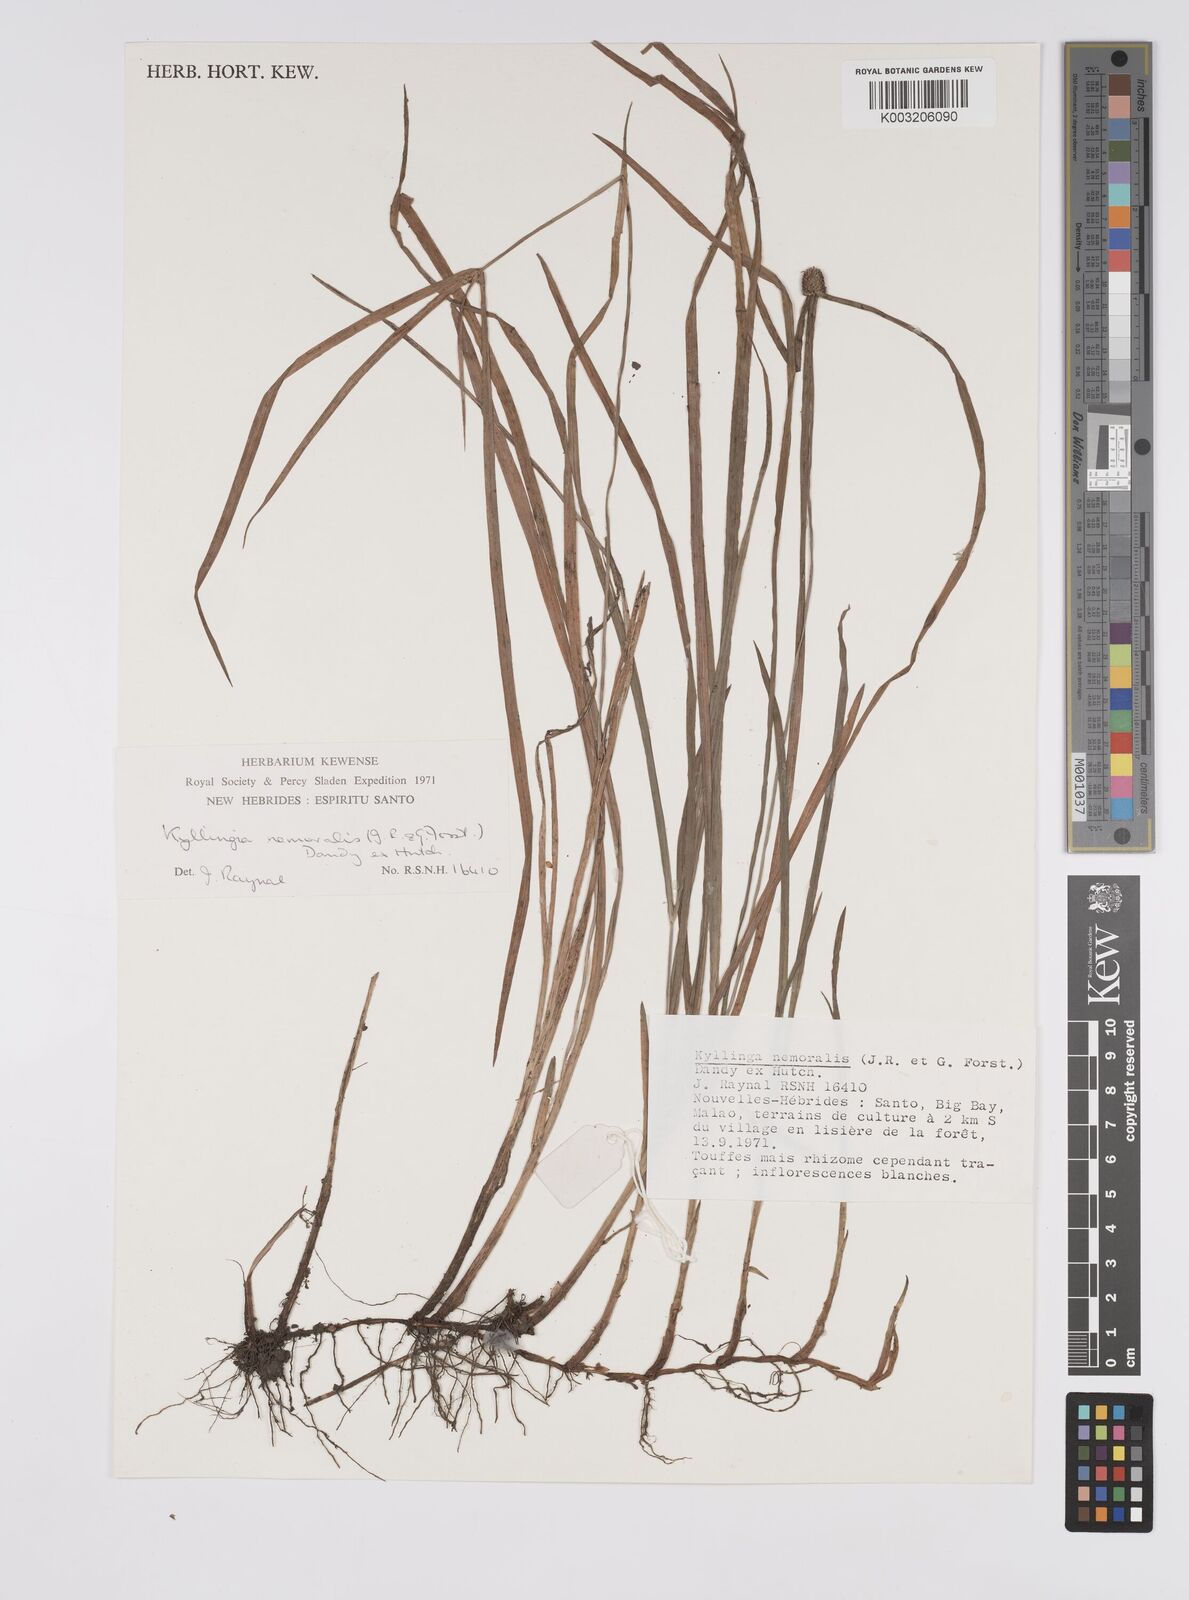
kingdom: Plantae
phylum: Tracheophyta
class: Liliopsida
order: Poales
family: Cyperaceae
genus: Cyperus
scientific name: Cyperus nemoralis
